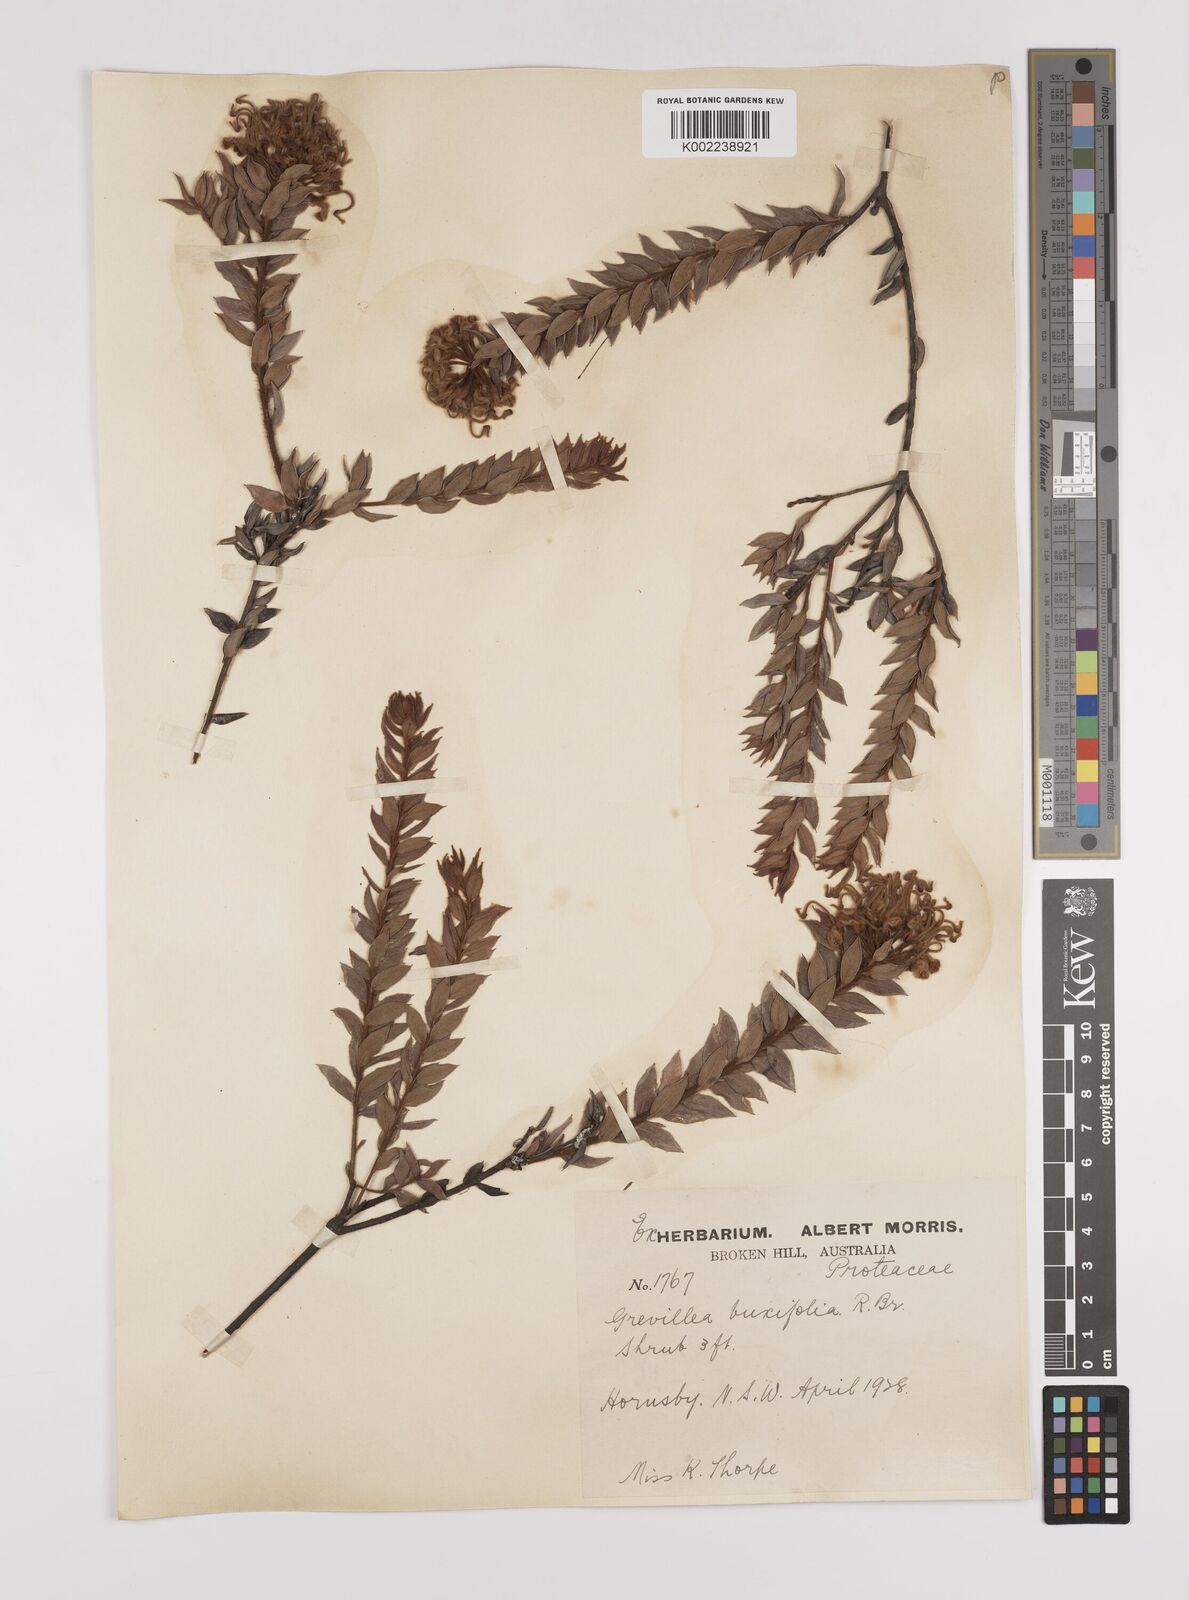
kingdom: Plantae
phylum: Tracheophyta
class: Magnoliopsida
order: Proteales
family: Proteaceae
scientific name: Proteaceae
